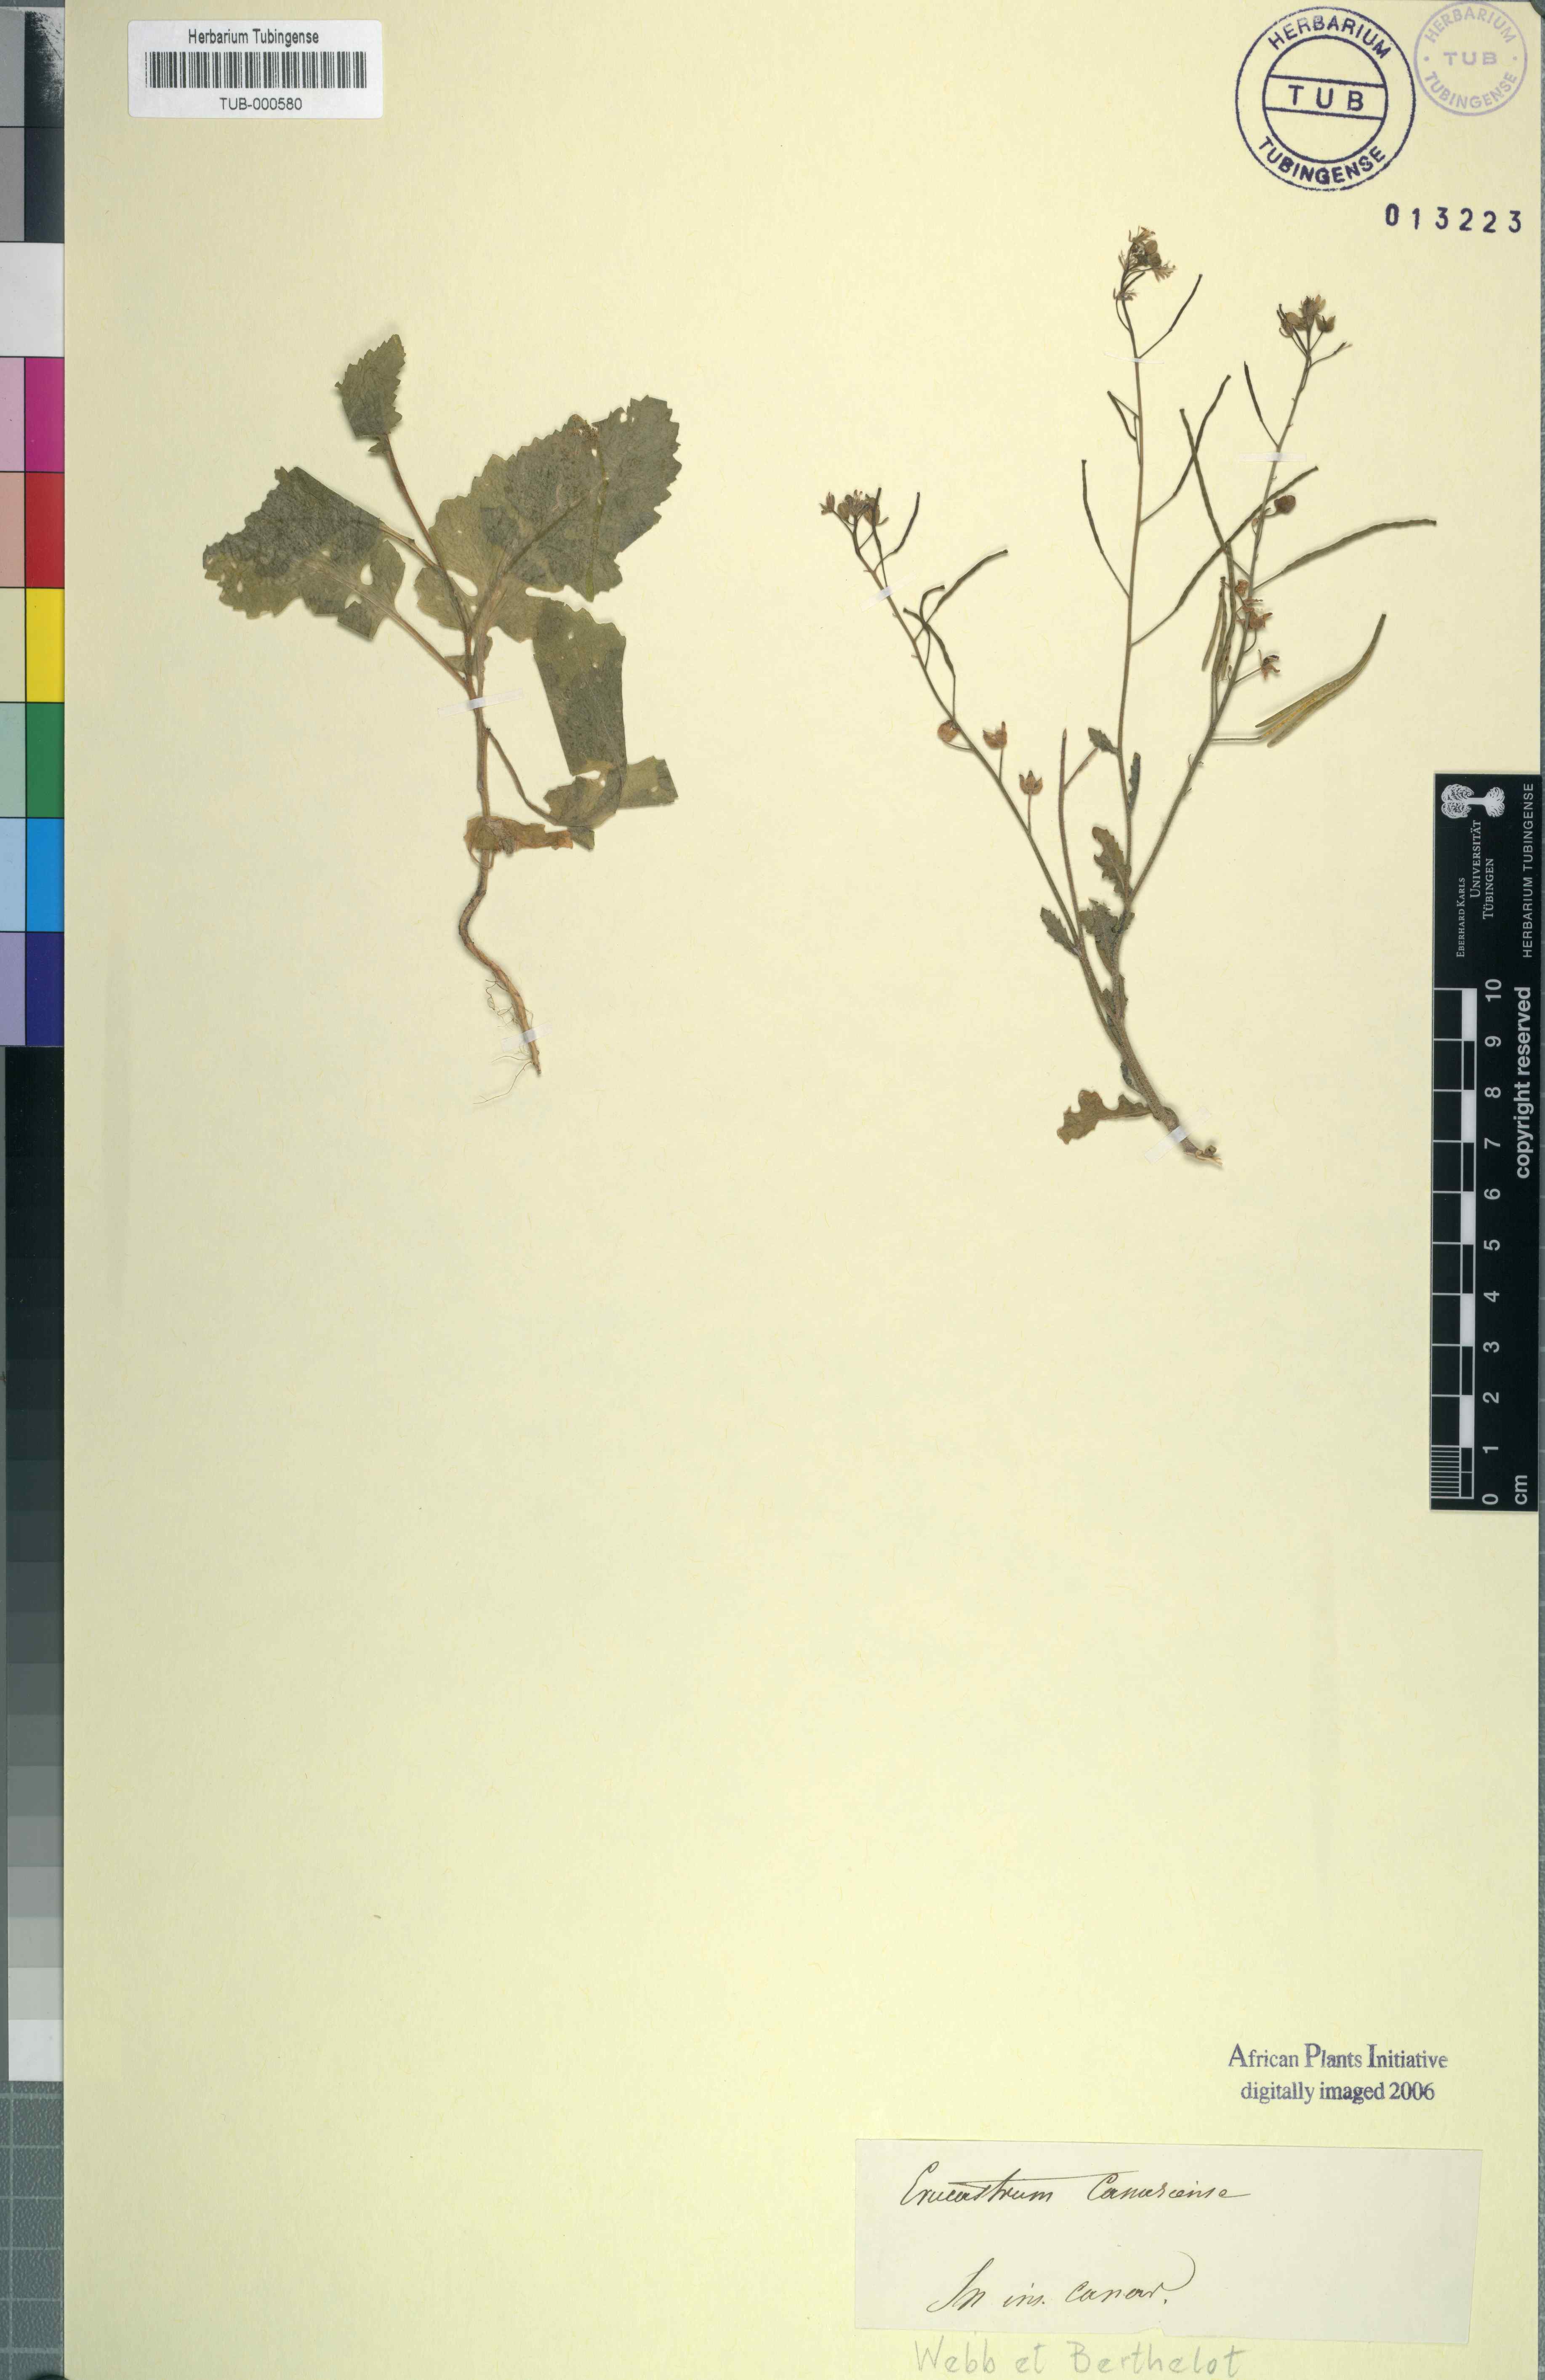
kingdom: Plantae
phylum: Tracheophyta
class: Magnoliopsida
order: Brassicales
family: Brassicaceae
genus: Erucastrum
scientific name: Erucastrum canariense
